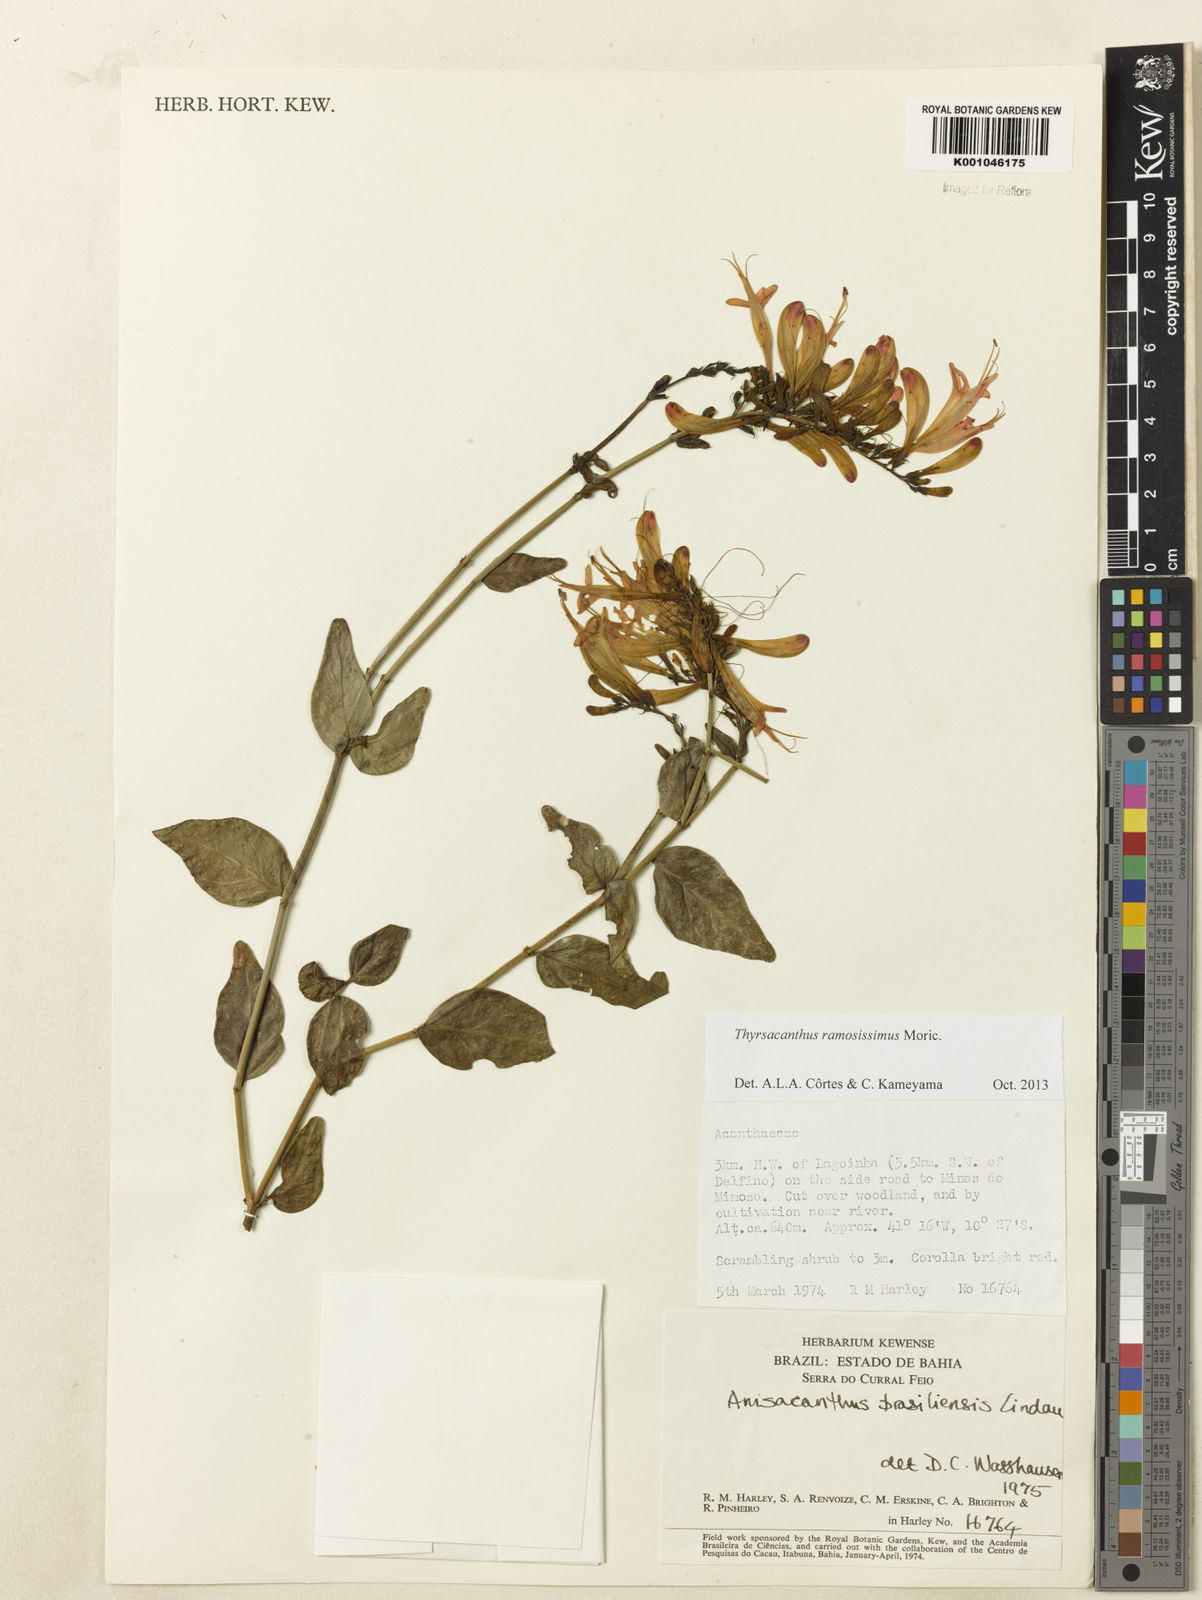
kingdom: Plantae
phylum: Tracheophyta
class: Magnoliopsida
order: Lamiales
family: Acanthaceae
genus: Thyrsacanthus
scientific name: Thyrsacanthus ramosissimus
